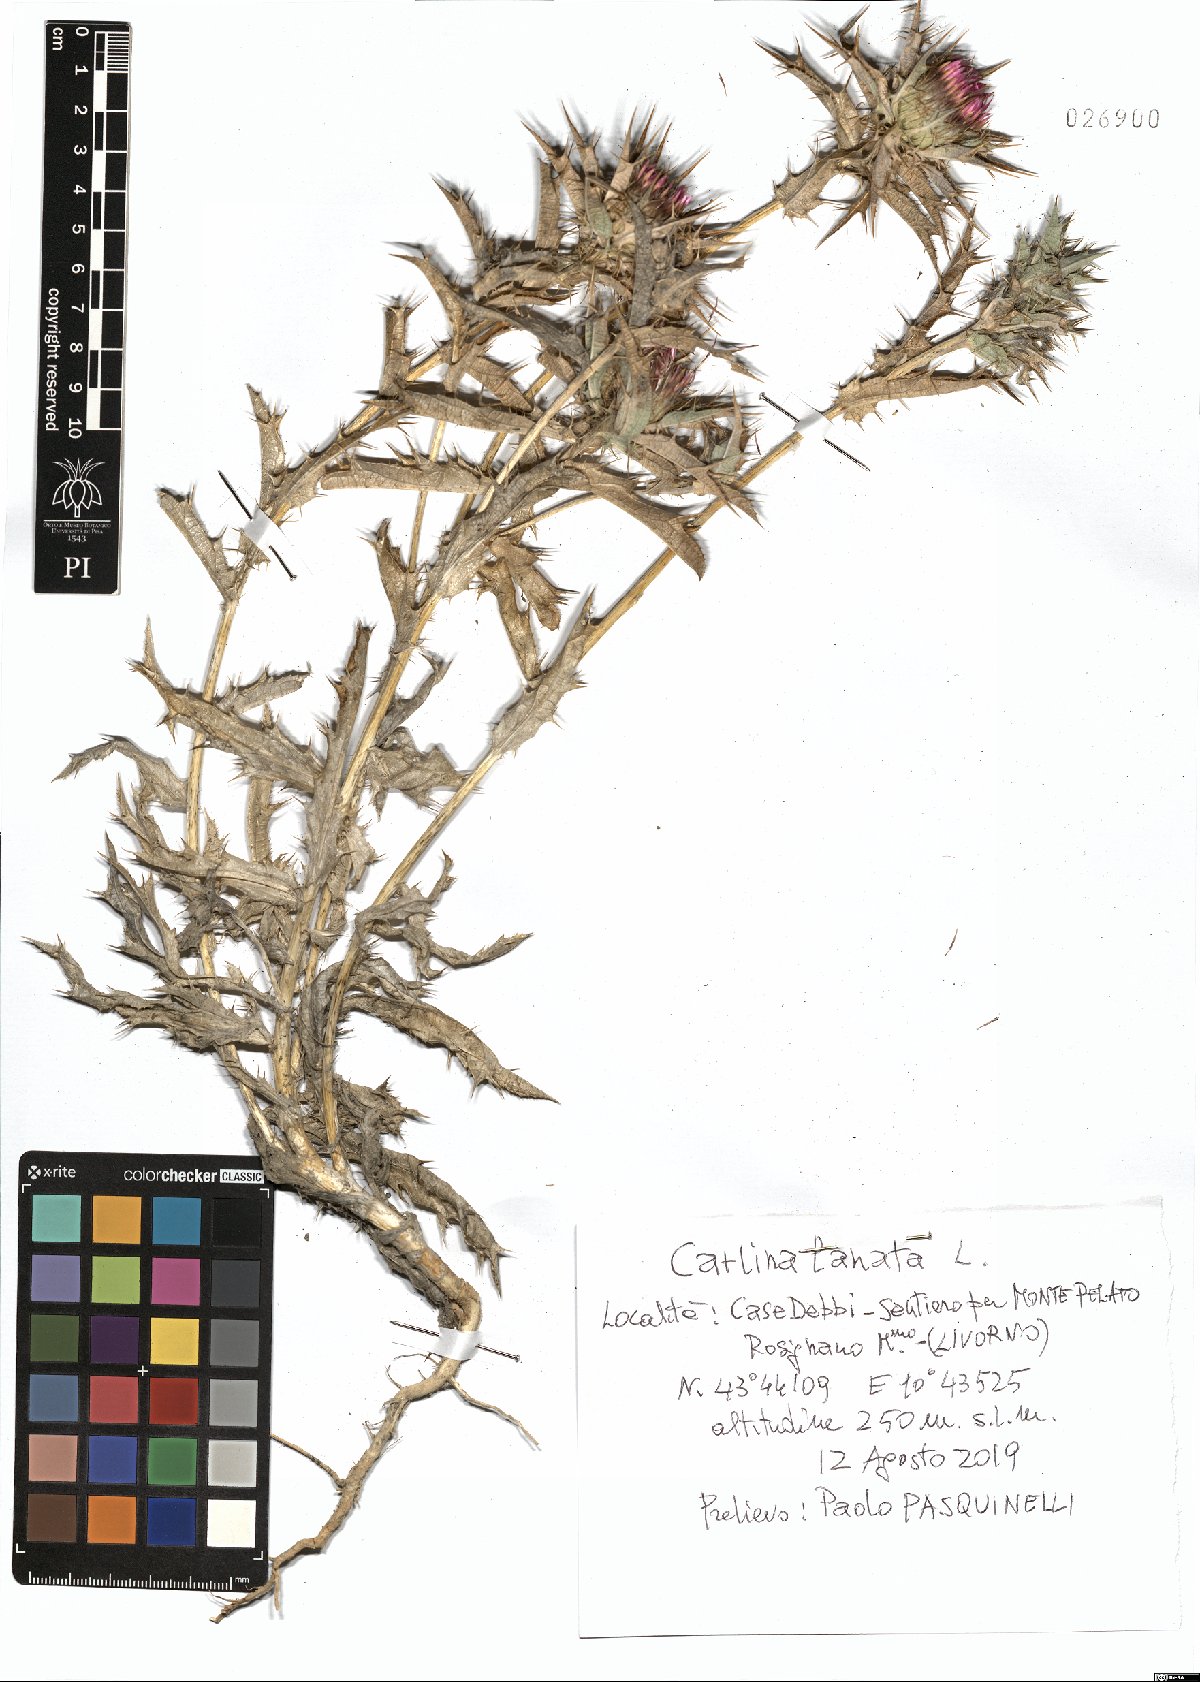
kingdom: Plantae
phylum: Tracheophyta
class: Magnoliopsida
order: Asterales
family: Asteraceae
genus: Carlina
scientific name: Carlina lanata
